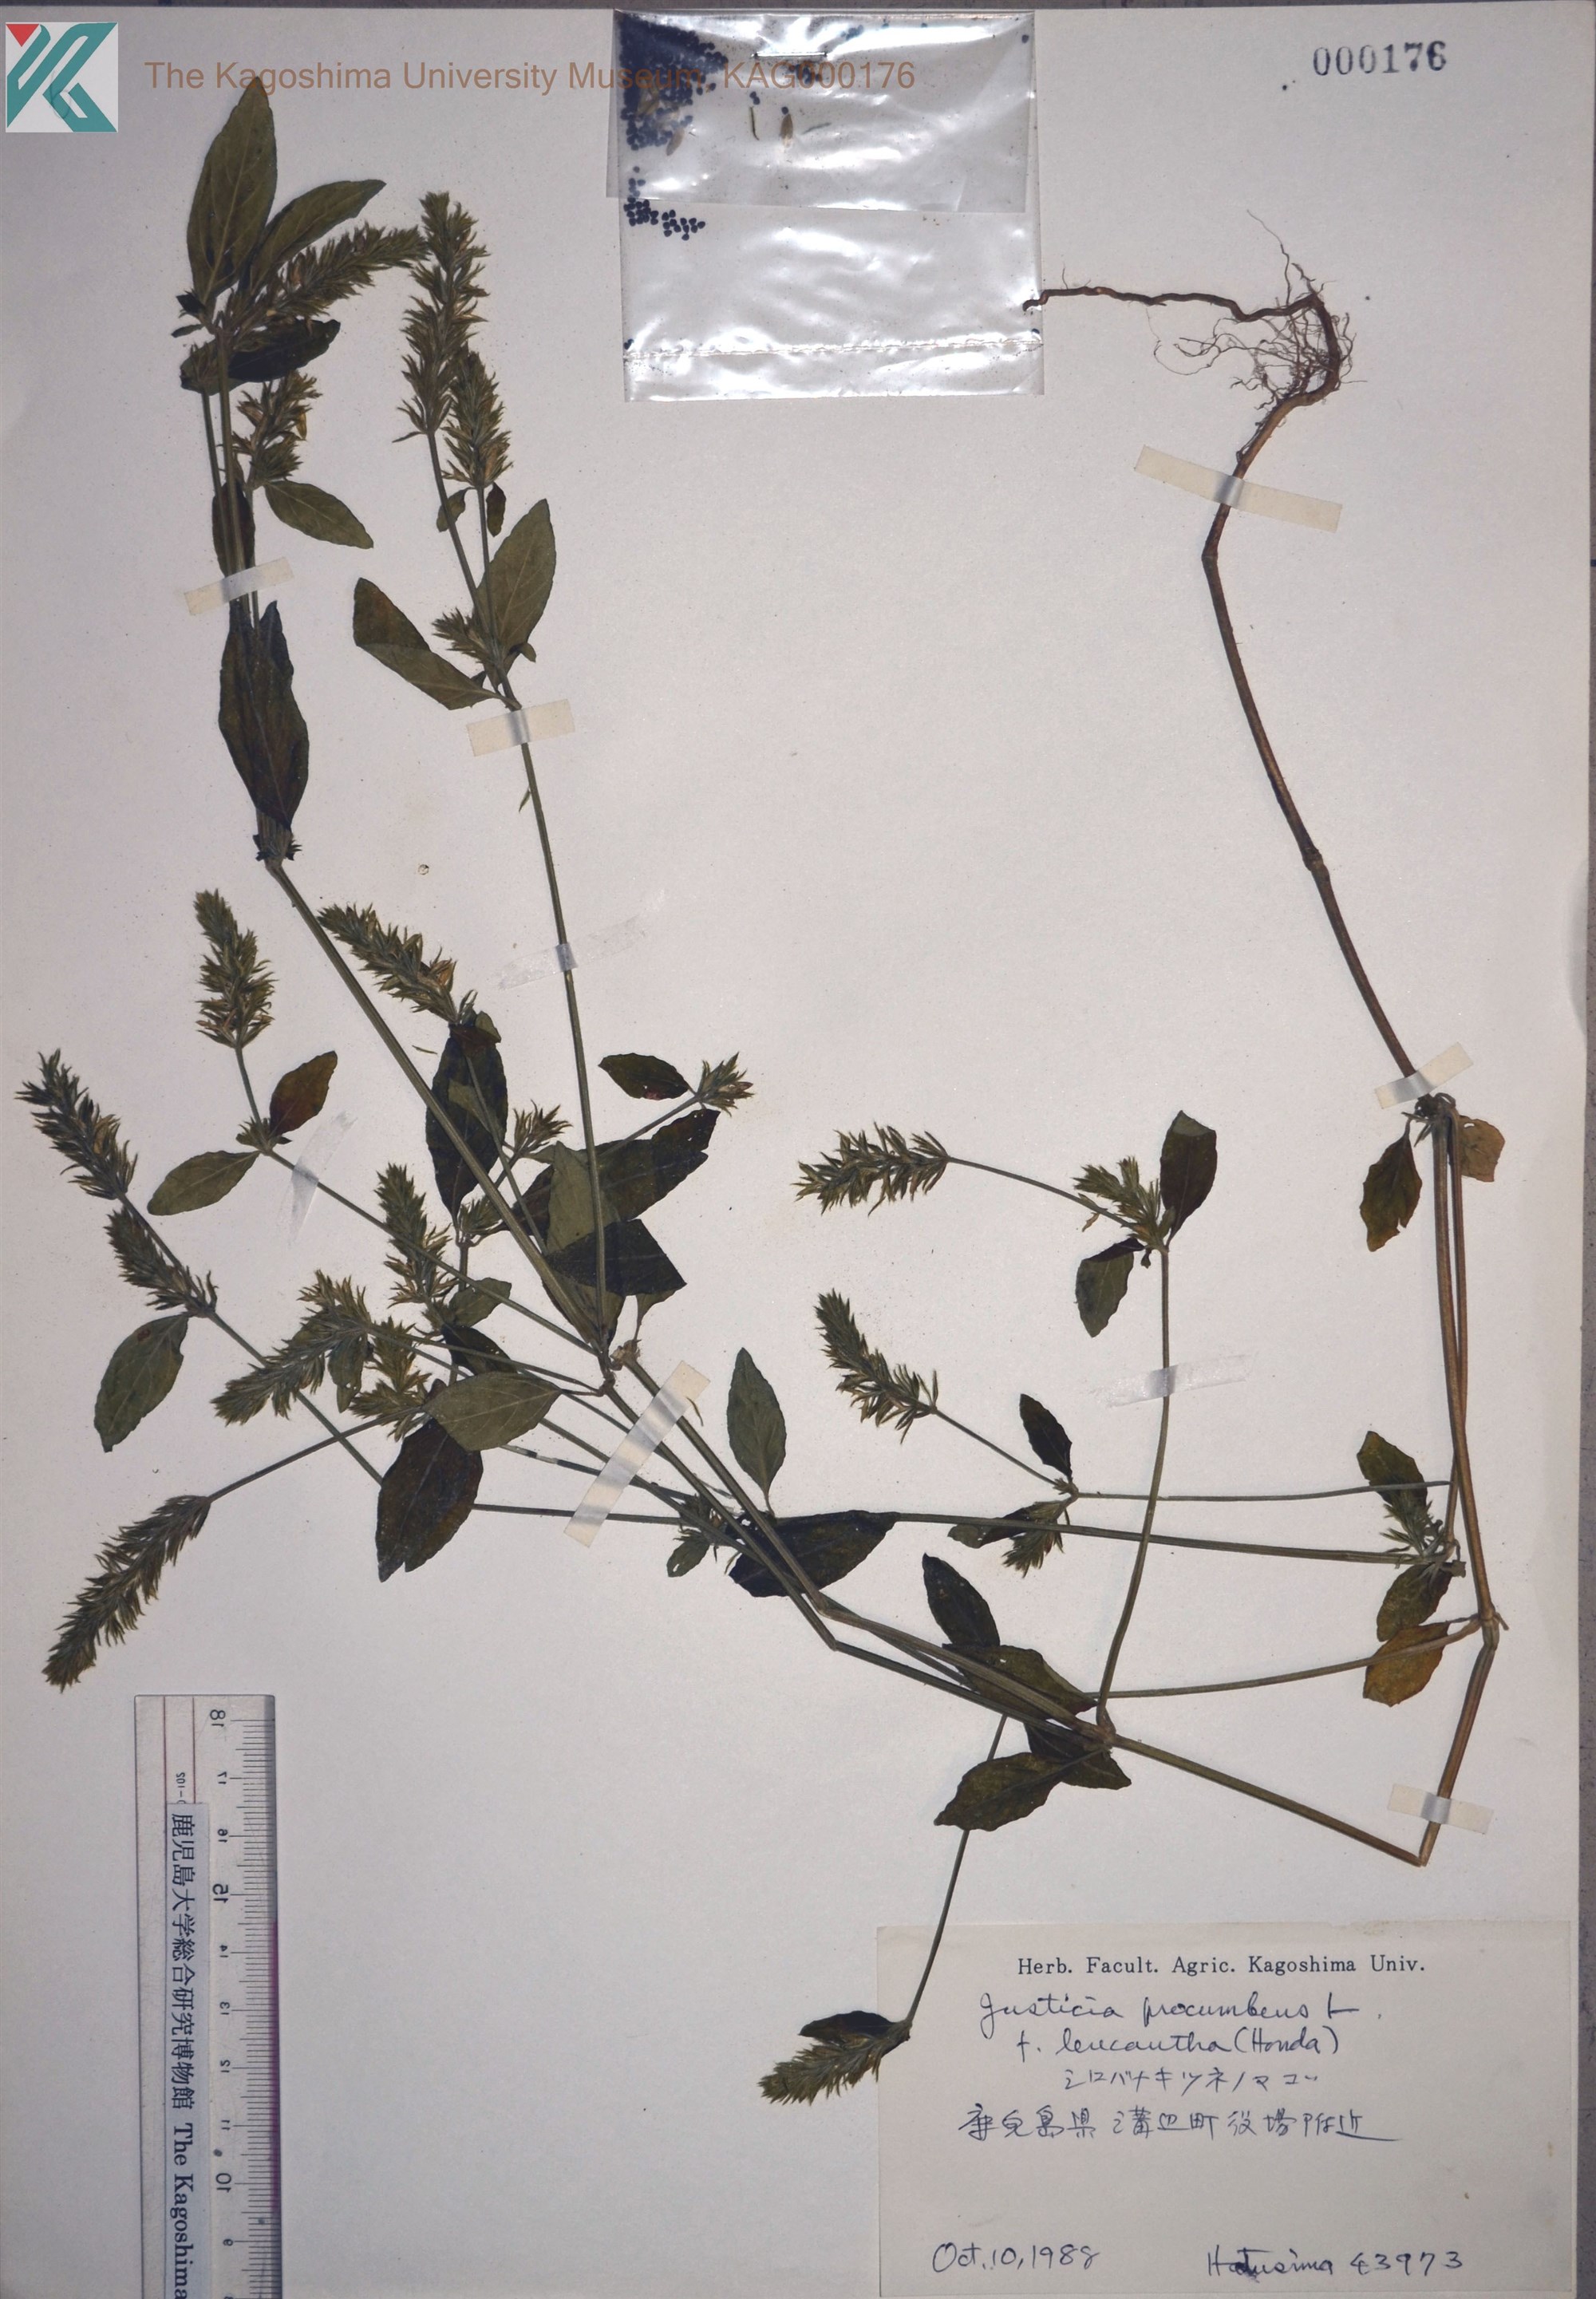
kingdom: Plantae
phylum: Tracheophyta
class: Magnoliopsida
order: Lamiales
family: Acanthaceae
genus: Rostellularia
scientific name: Rostellularia procumbens
